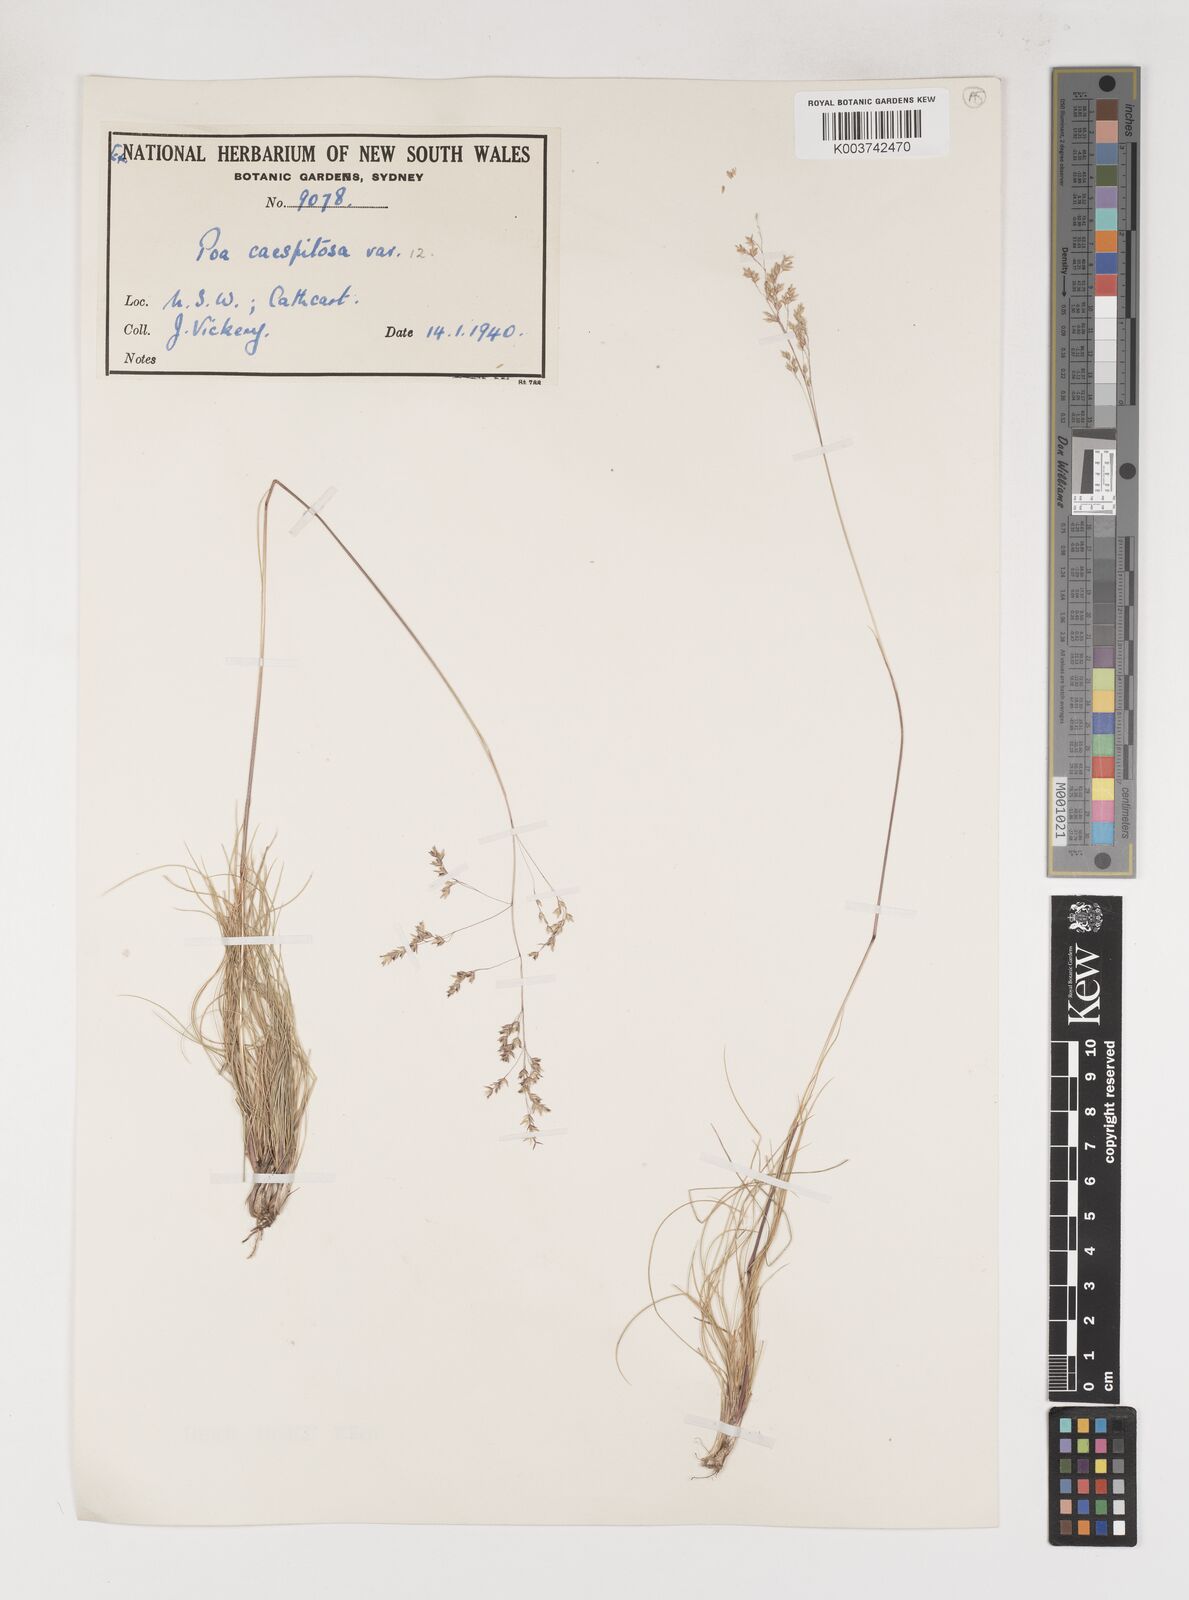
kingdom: Plantae
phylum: Tracheophyta
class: Liliopsida
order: Poales
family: Poaceae
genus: Poa
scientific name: Poa
